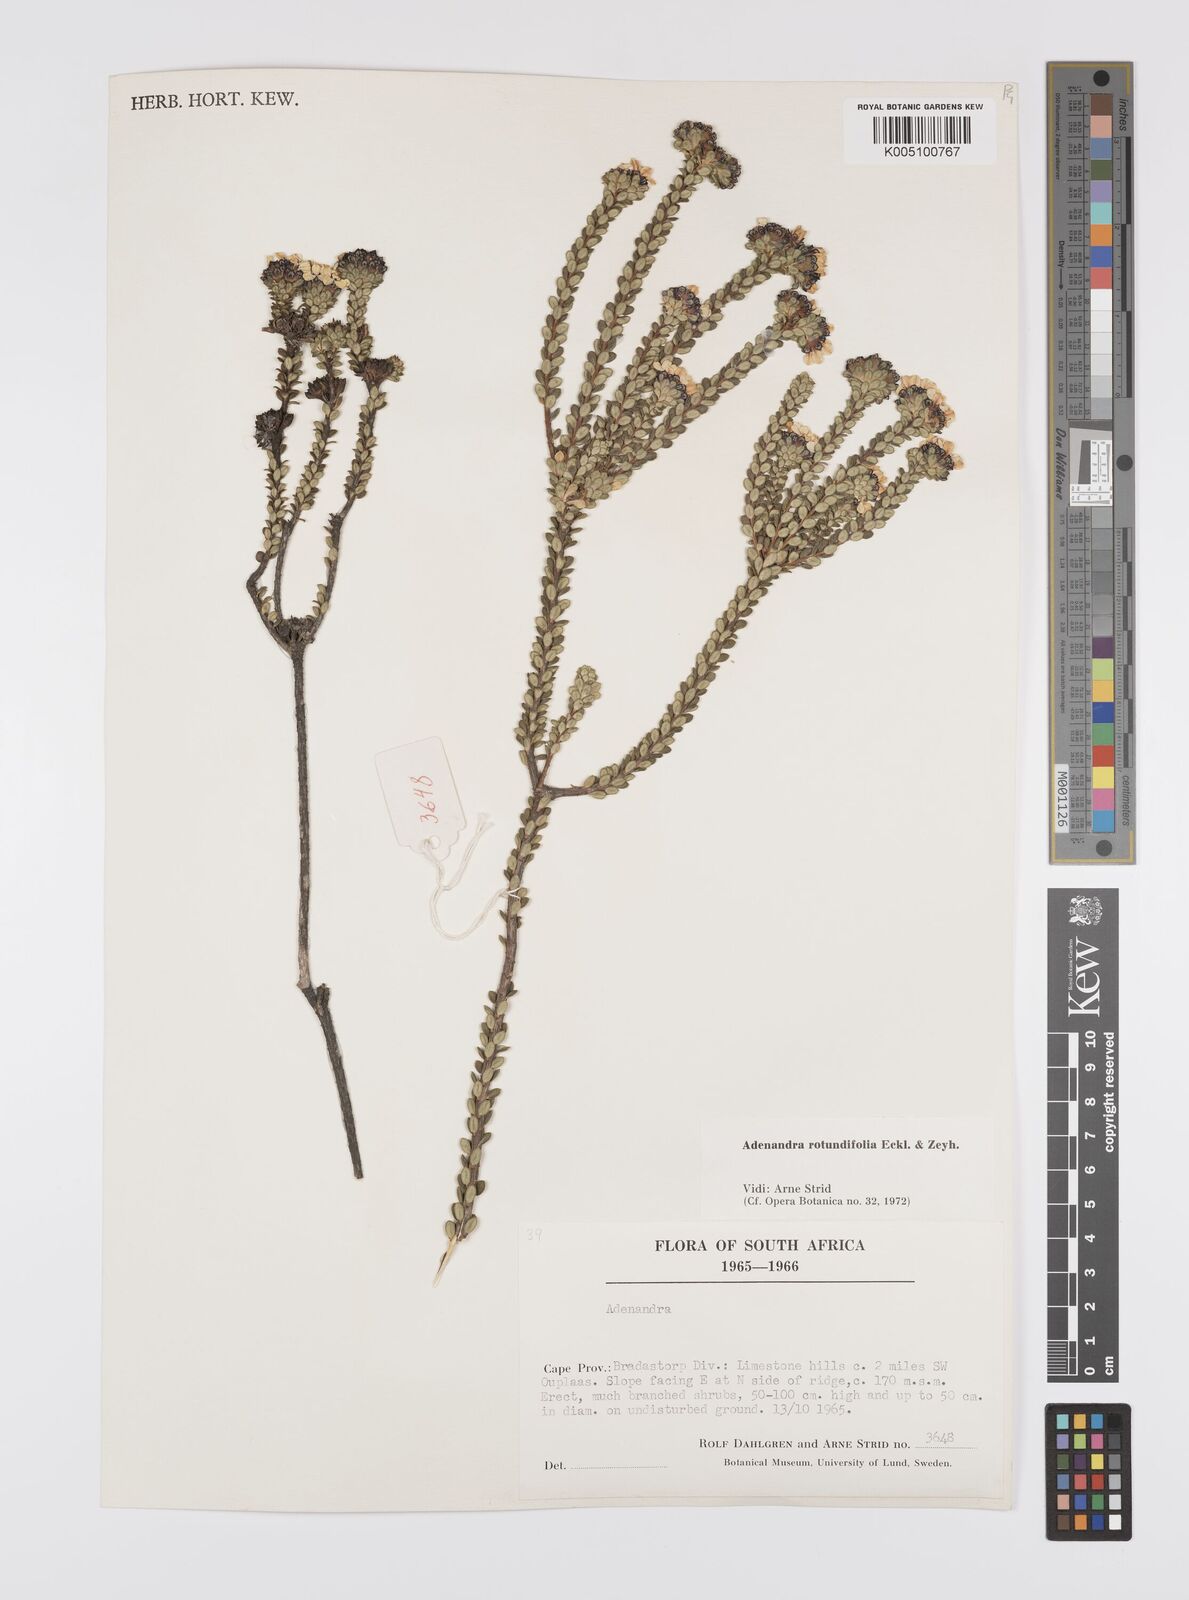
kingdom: Plantae
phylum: Tracheophyta
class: Magnoliopsida
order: Sapindales
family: Rutaceae
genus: Adenandra
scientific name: Adenandra rotundifolia
